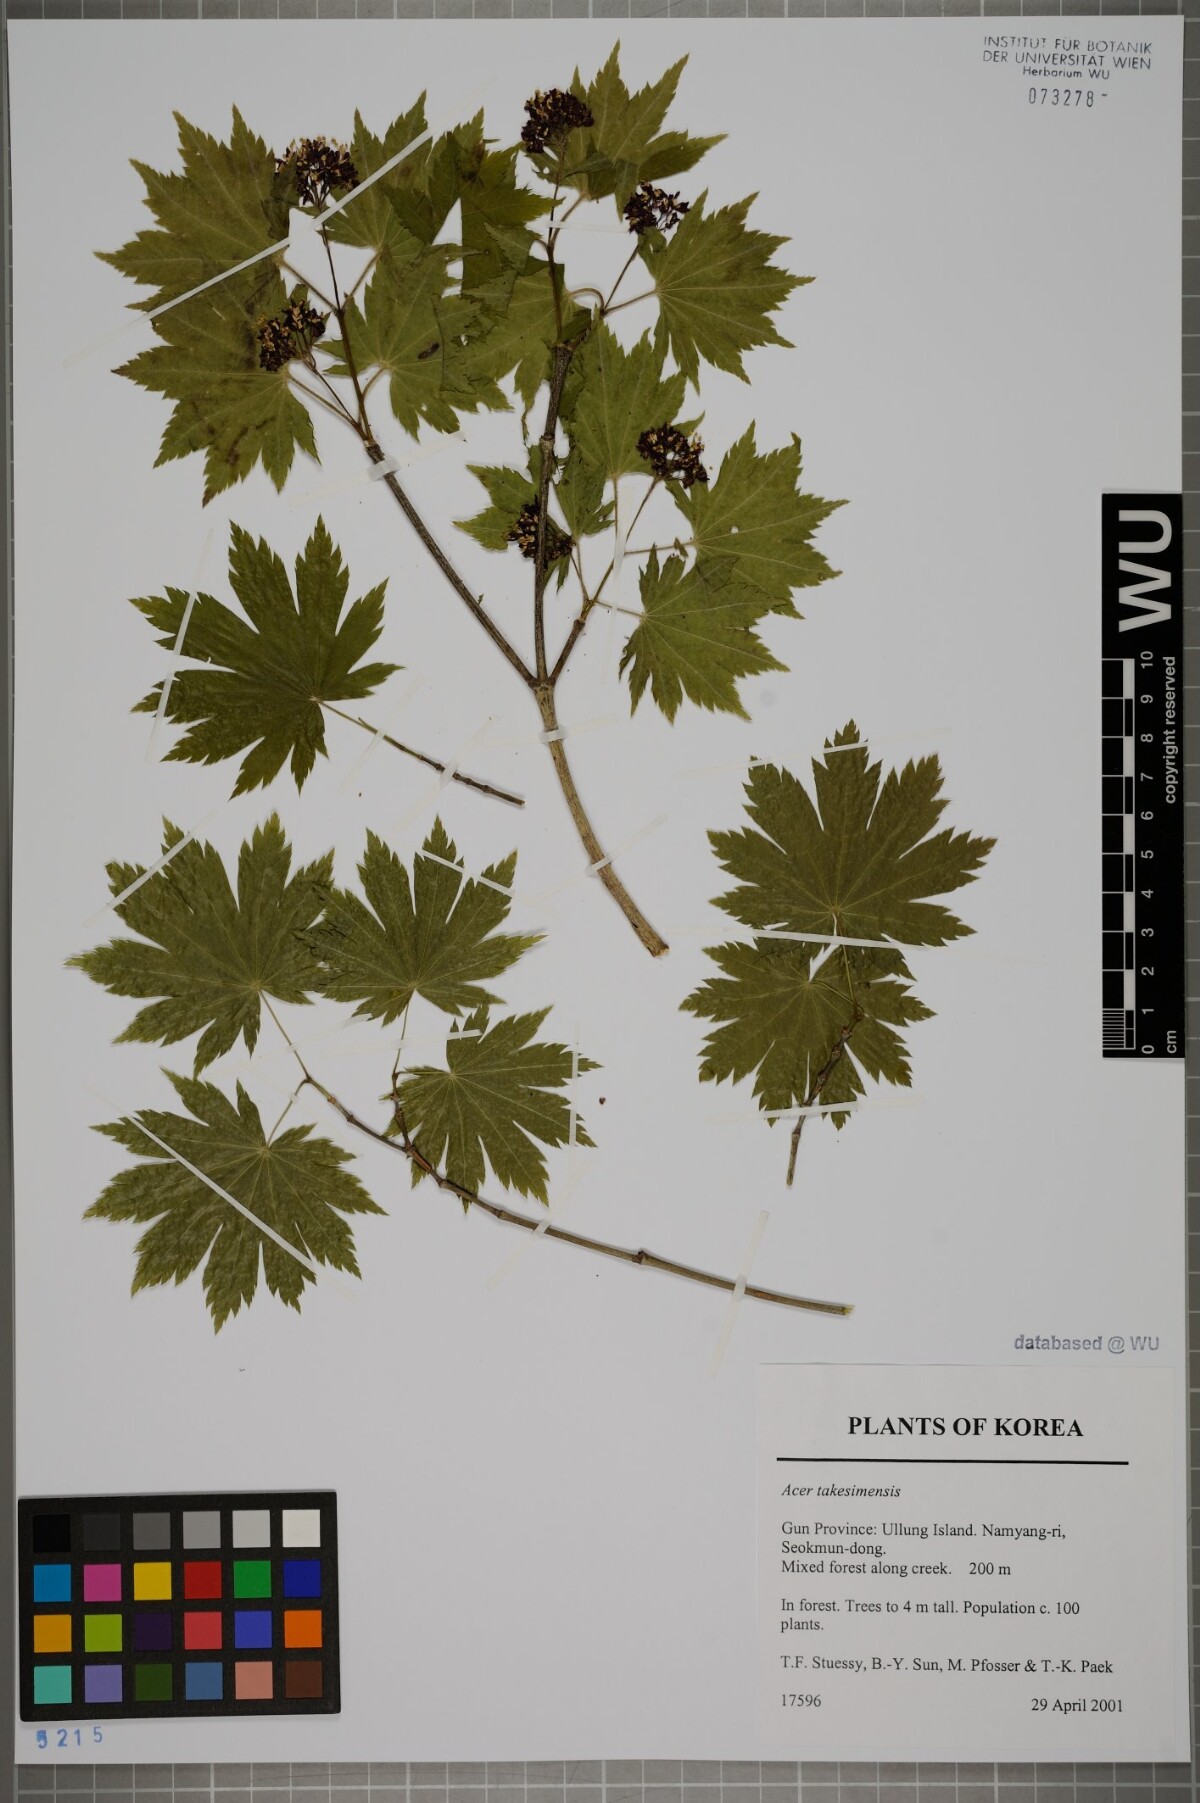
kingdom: Plantae
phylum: Tracheophyta
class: Magnoliopsida
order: Sapindales
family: Sapindaceae
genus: Acer
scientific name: Acer pseudosieboldianum
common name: Korean maple
